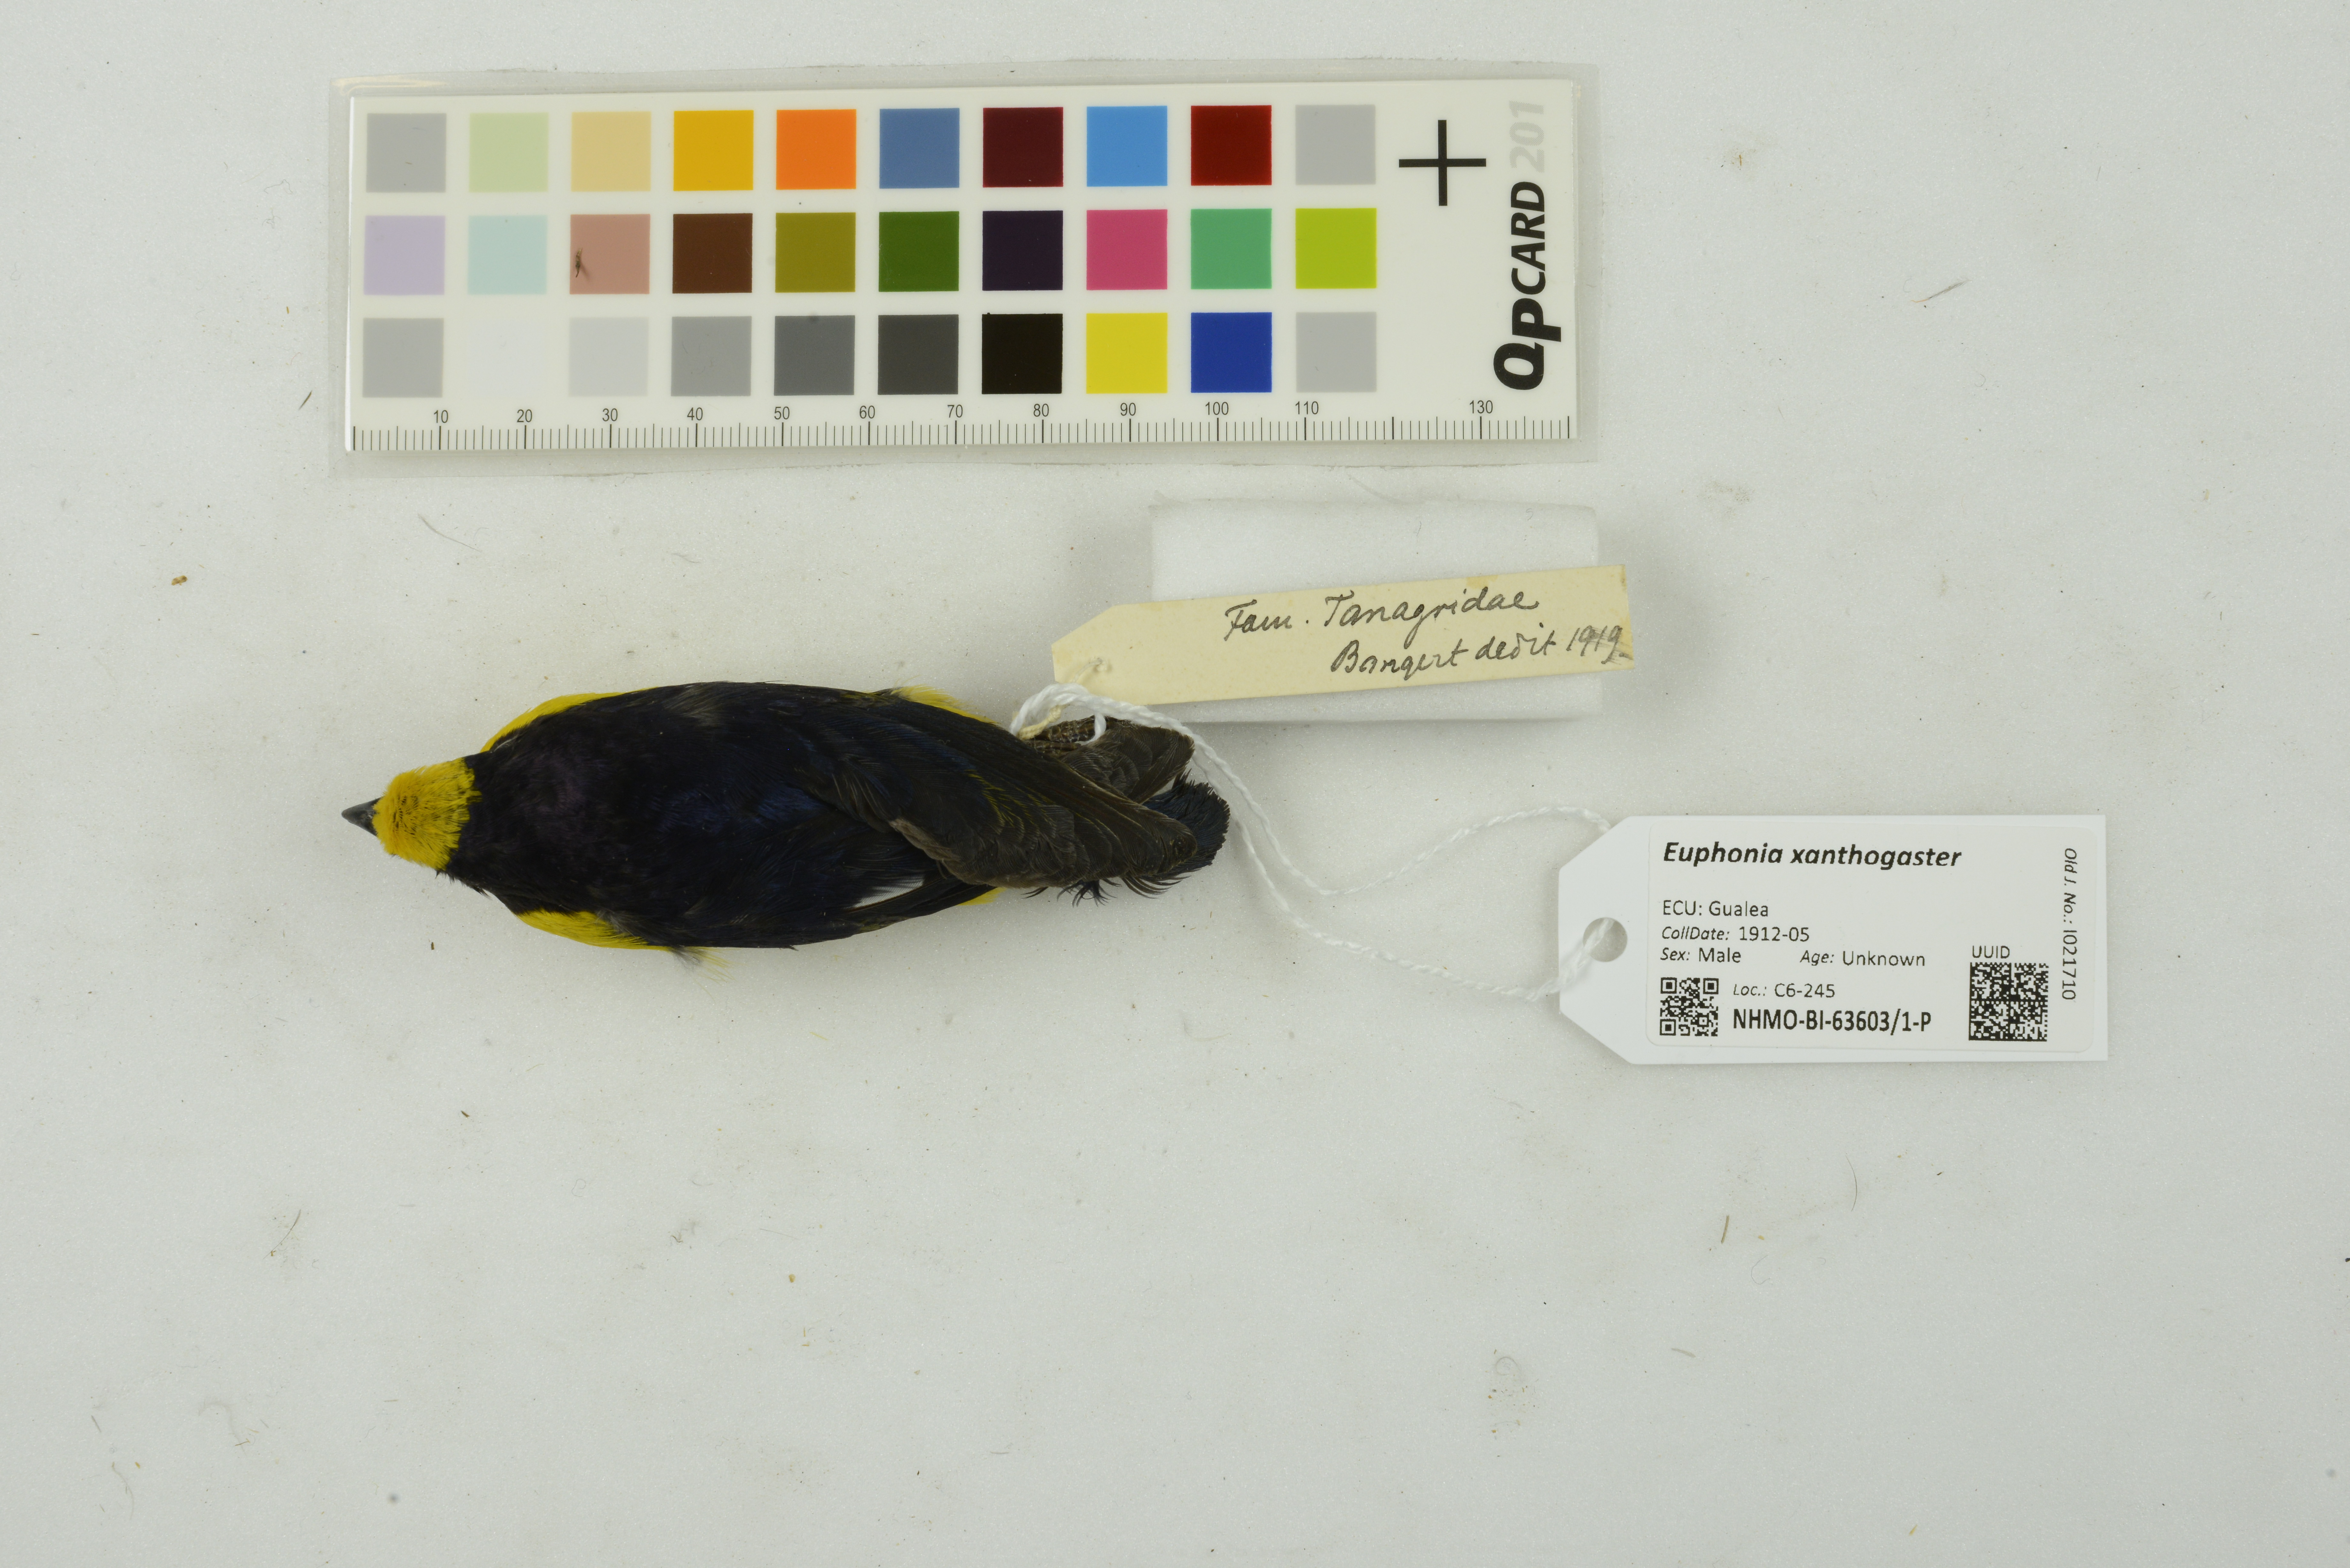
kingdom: Animalia
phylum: Chordata
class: Aves
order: Passeriformes
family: Fringillidae
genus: Euphonia
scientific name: Euphonia xanthogaster
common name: Orange-bellied euphonia
